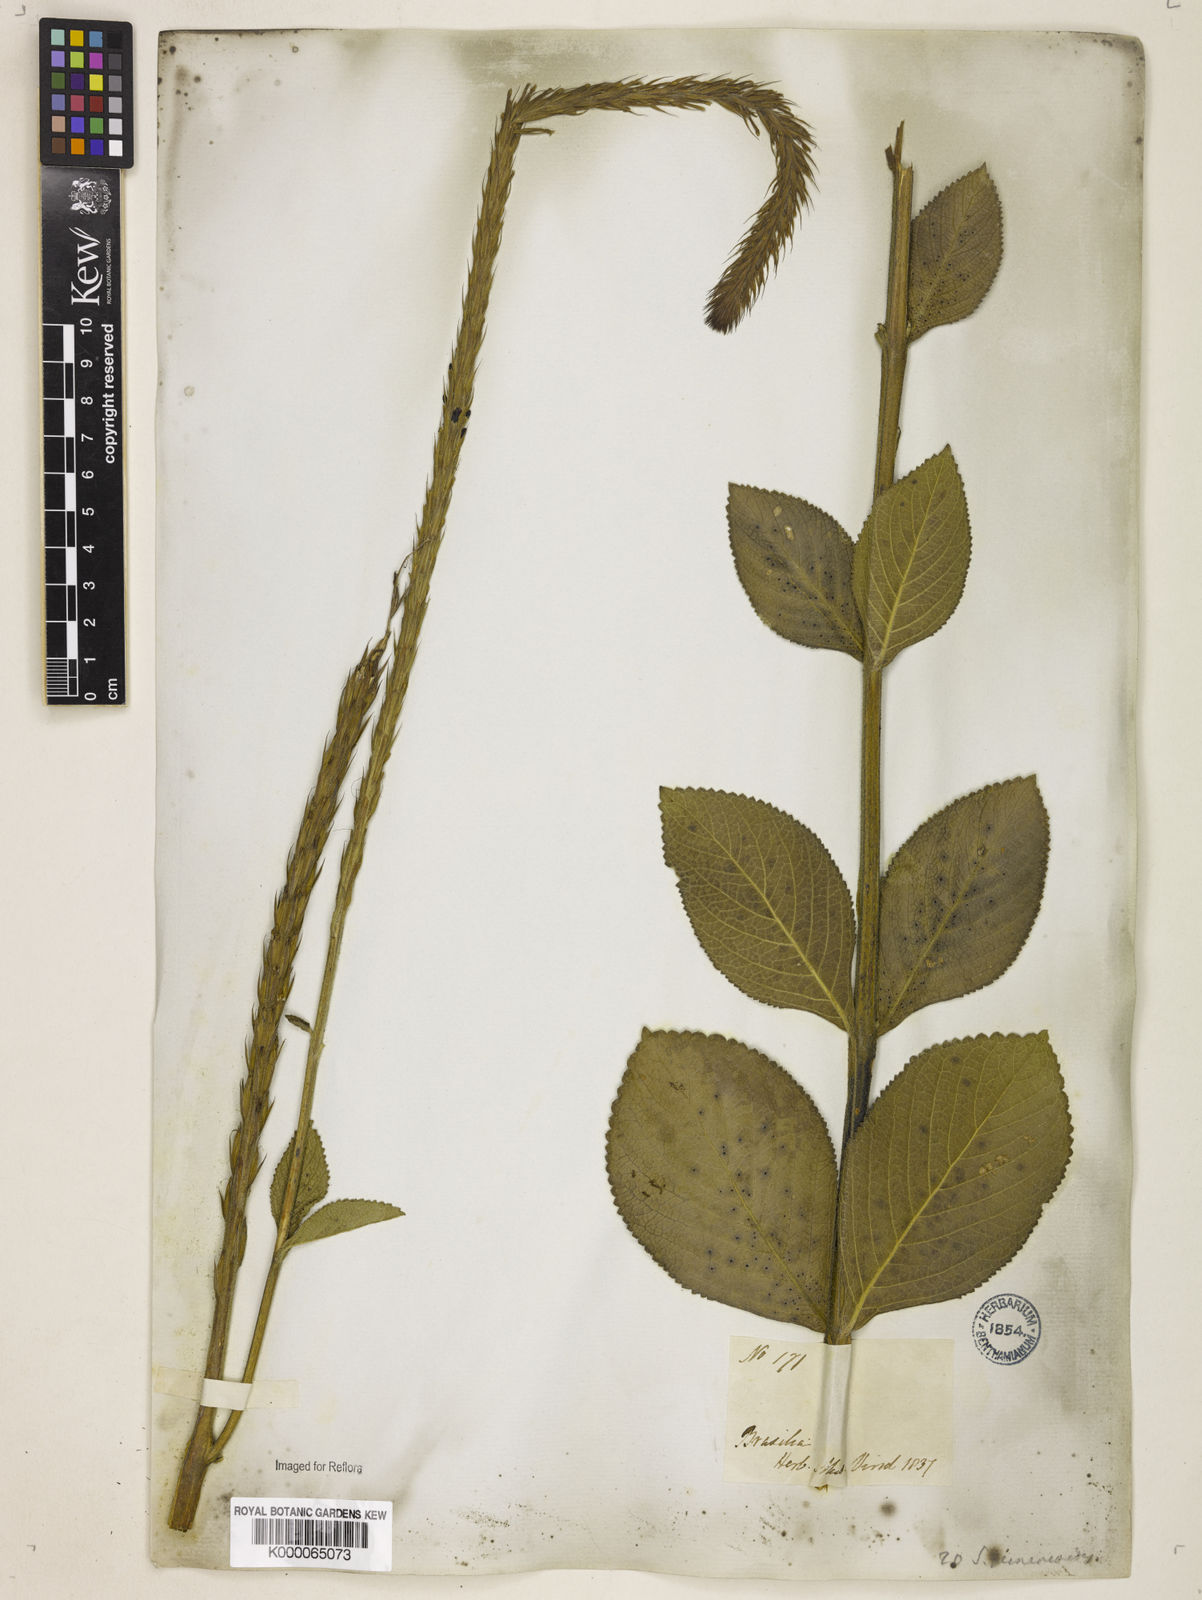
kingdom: Plantae
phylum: Tracheophyta
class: Magnoliopsida
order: Lamiales
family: Verbenaceae
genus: Stachytarpheta
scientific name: Stachytarpheta gesnerioides
